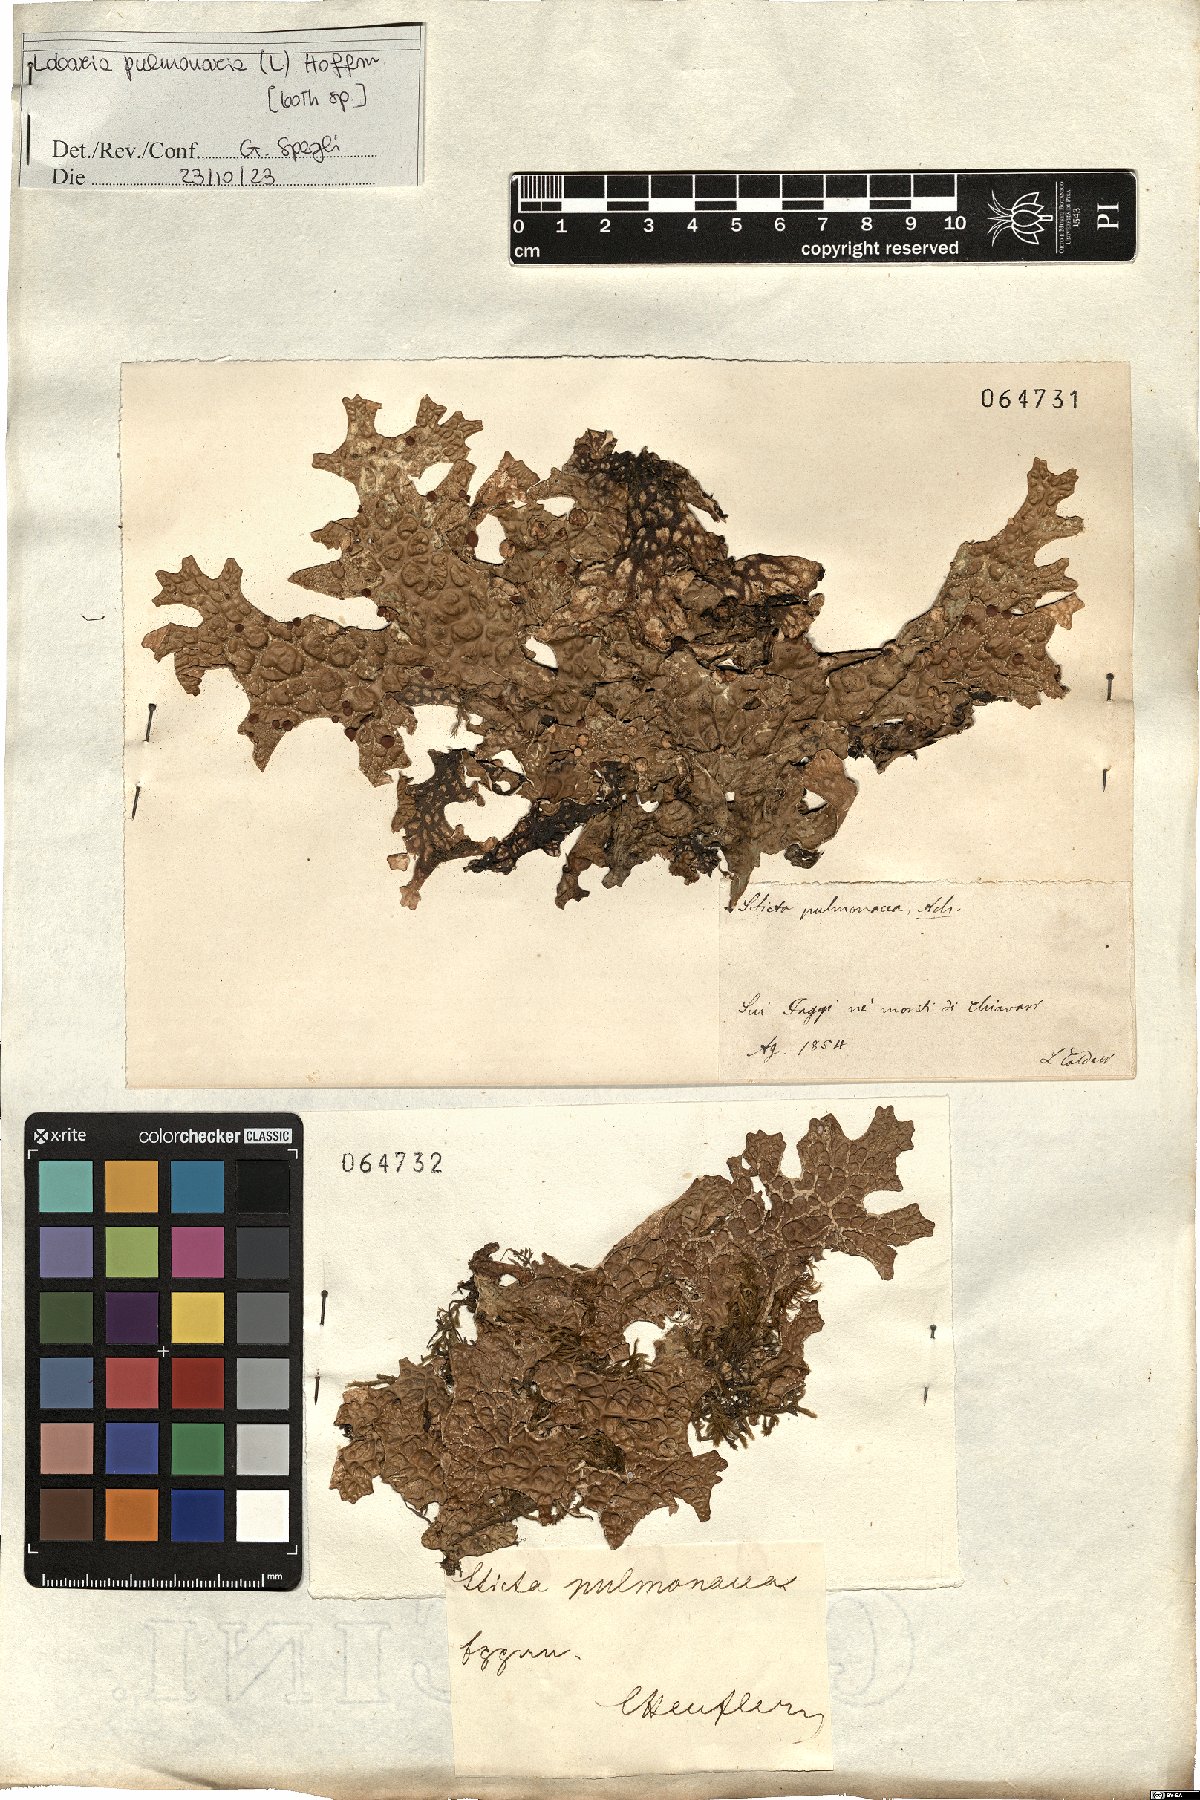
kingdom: Fungi
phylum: Ascomycota
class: Lecanoromycetes
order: Peltigerales
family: Lobariaceae
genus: Lobaria
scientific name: Lobaria pulmonaria
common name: Lungwort
